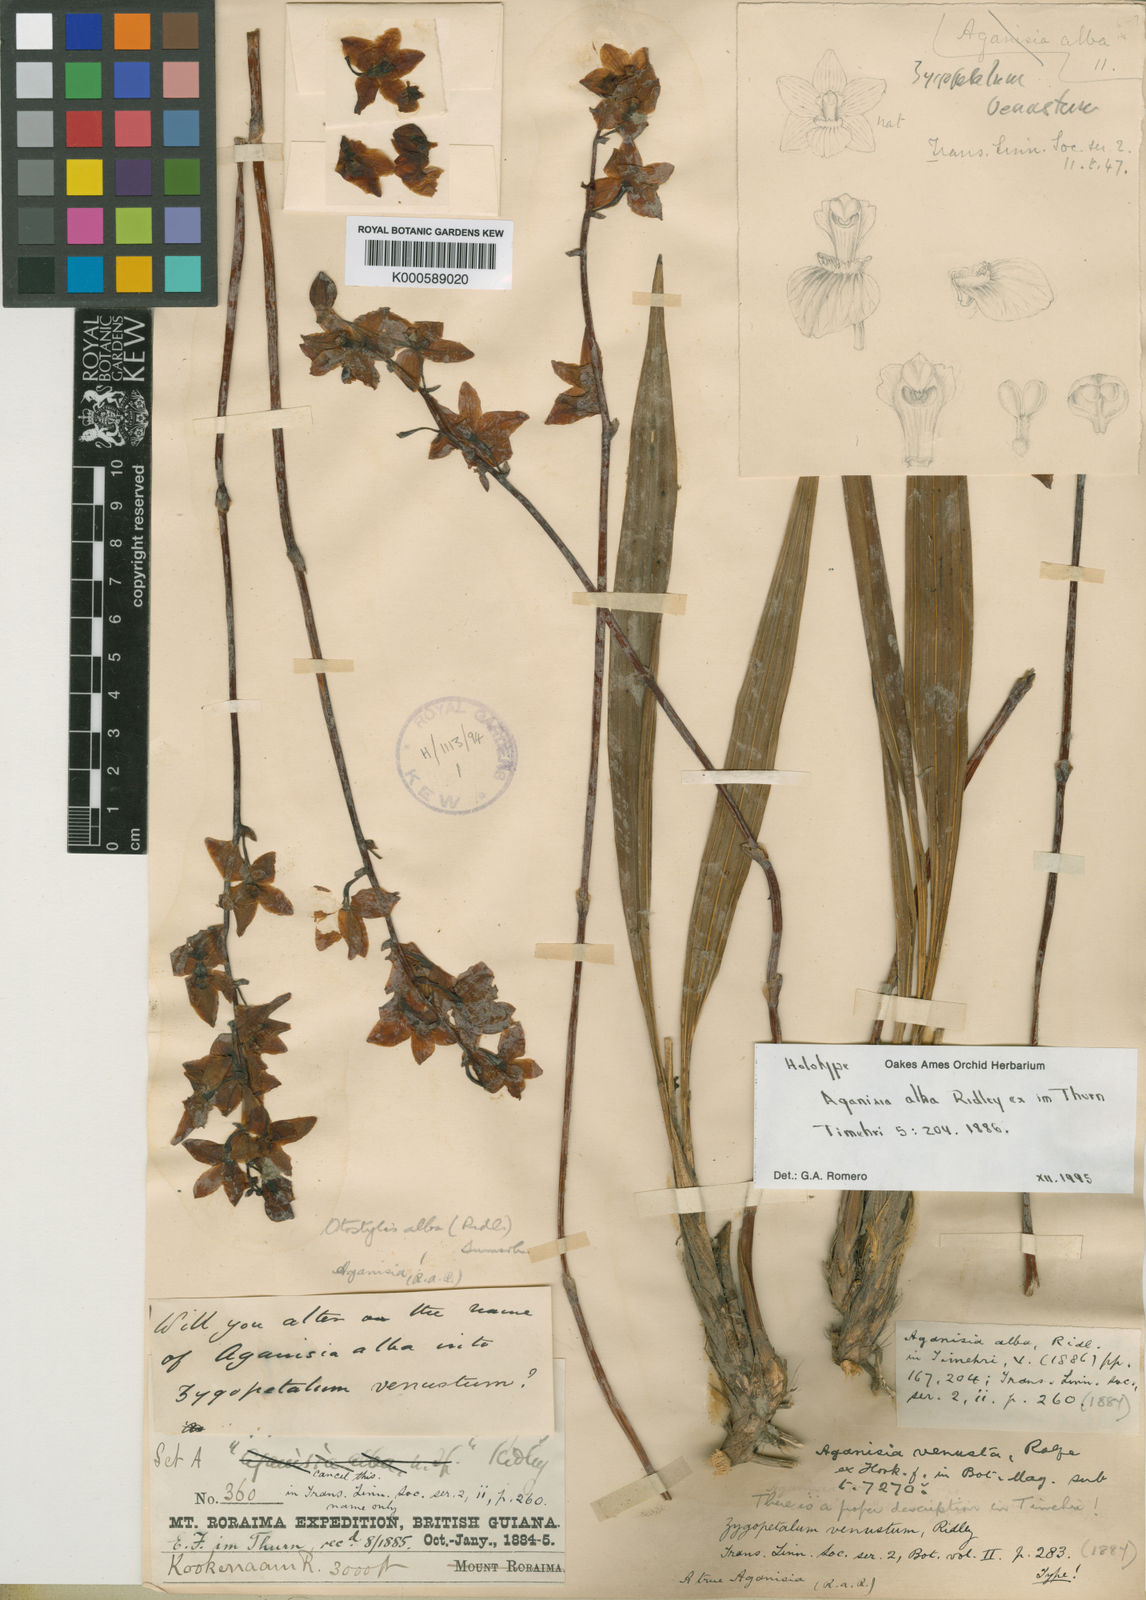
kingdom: Plantae
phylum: Tracheophyta
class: Liliopsida
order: Asparagales
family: Orchidaceae
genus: Otostylis
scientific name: Otostylis alba
